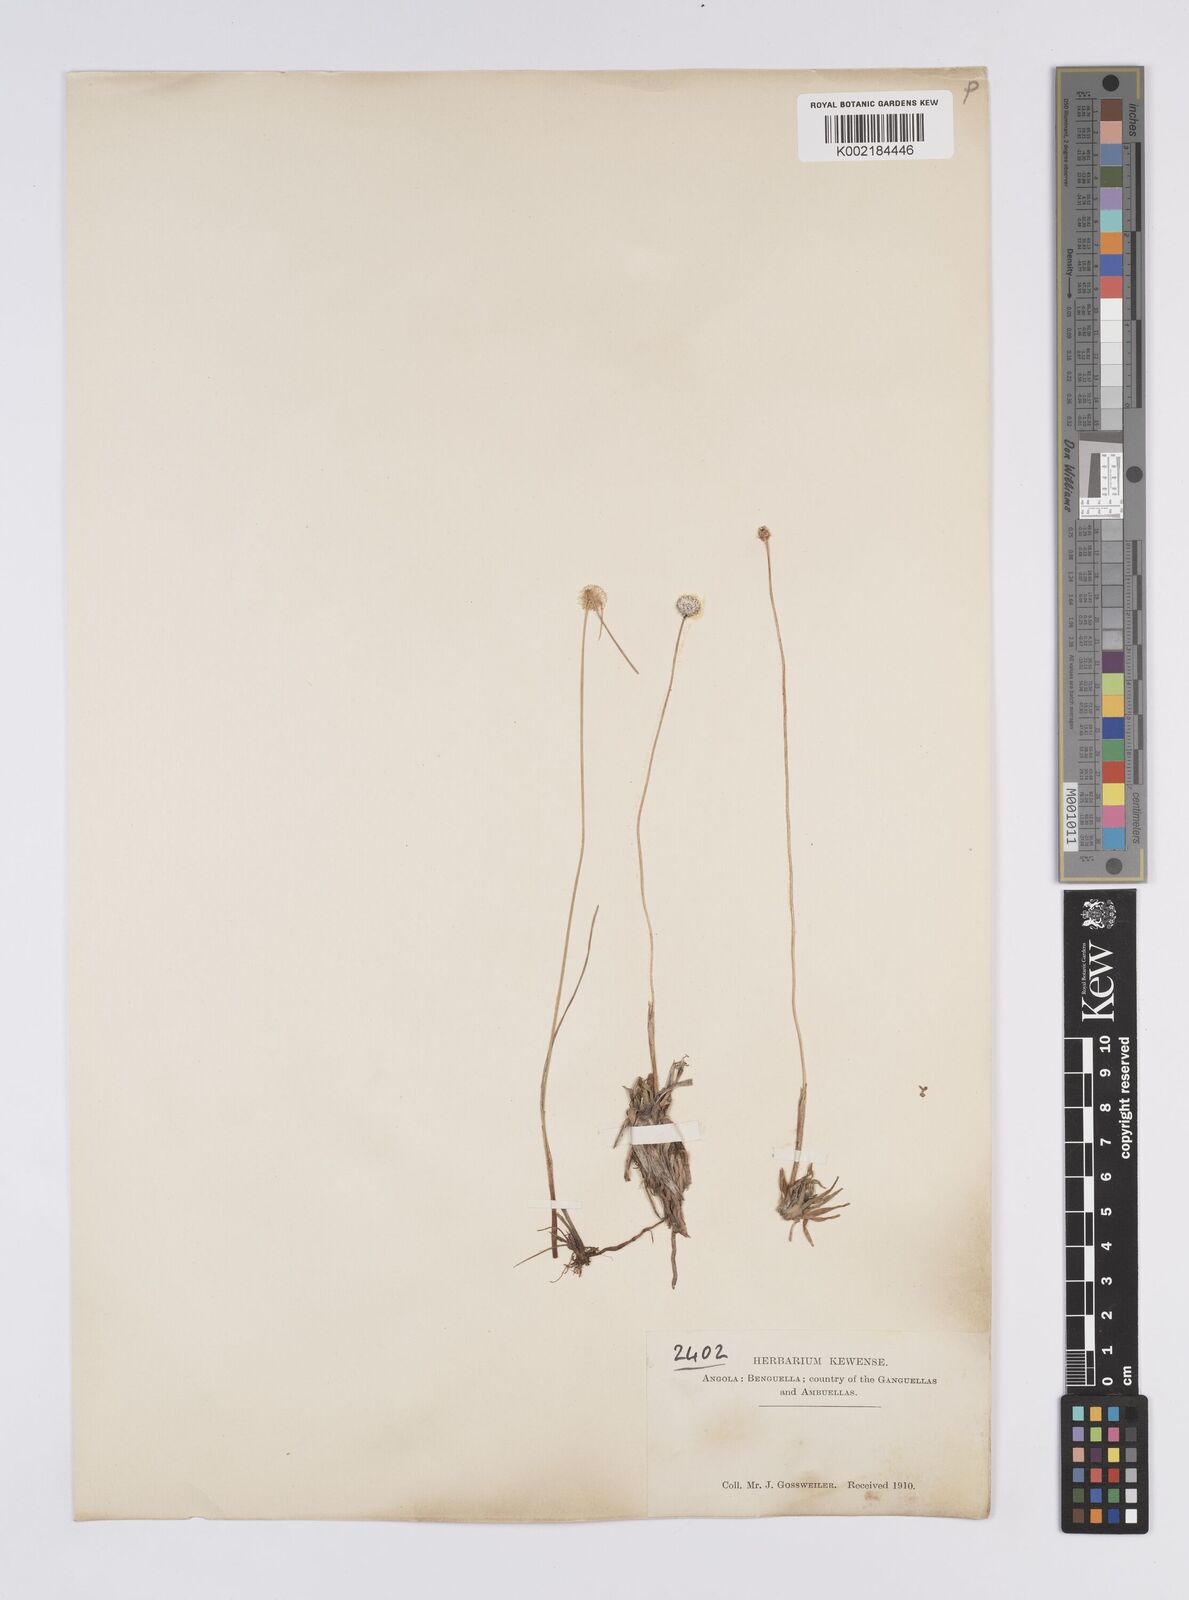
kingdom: Plantae
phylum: Tracheophyta
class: Liliopsida
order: Poales
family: Eriocaulaceae
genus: Eriocaulon
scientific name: Eriocaulon
